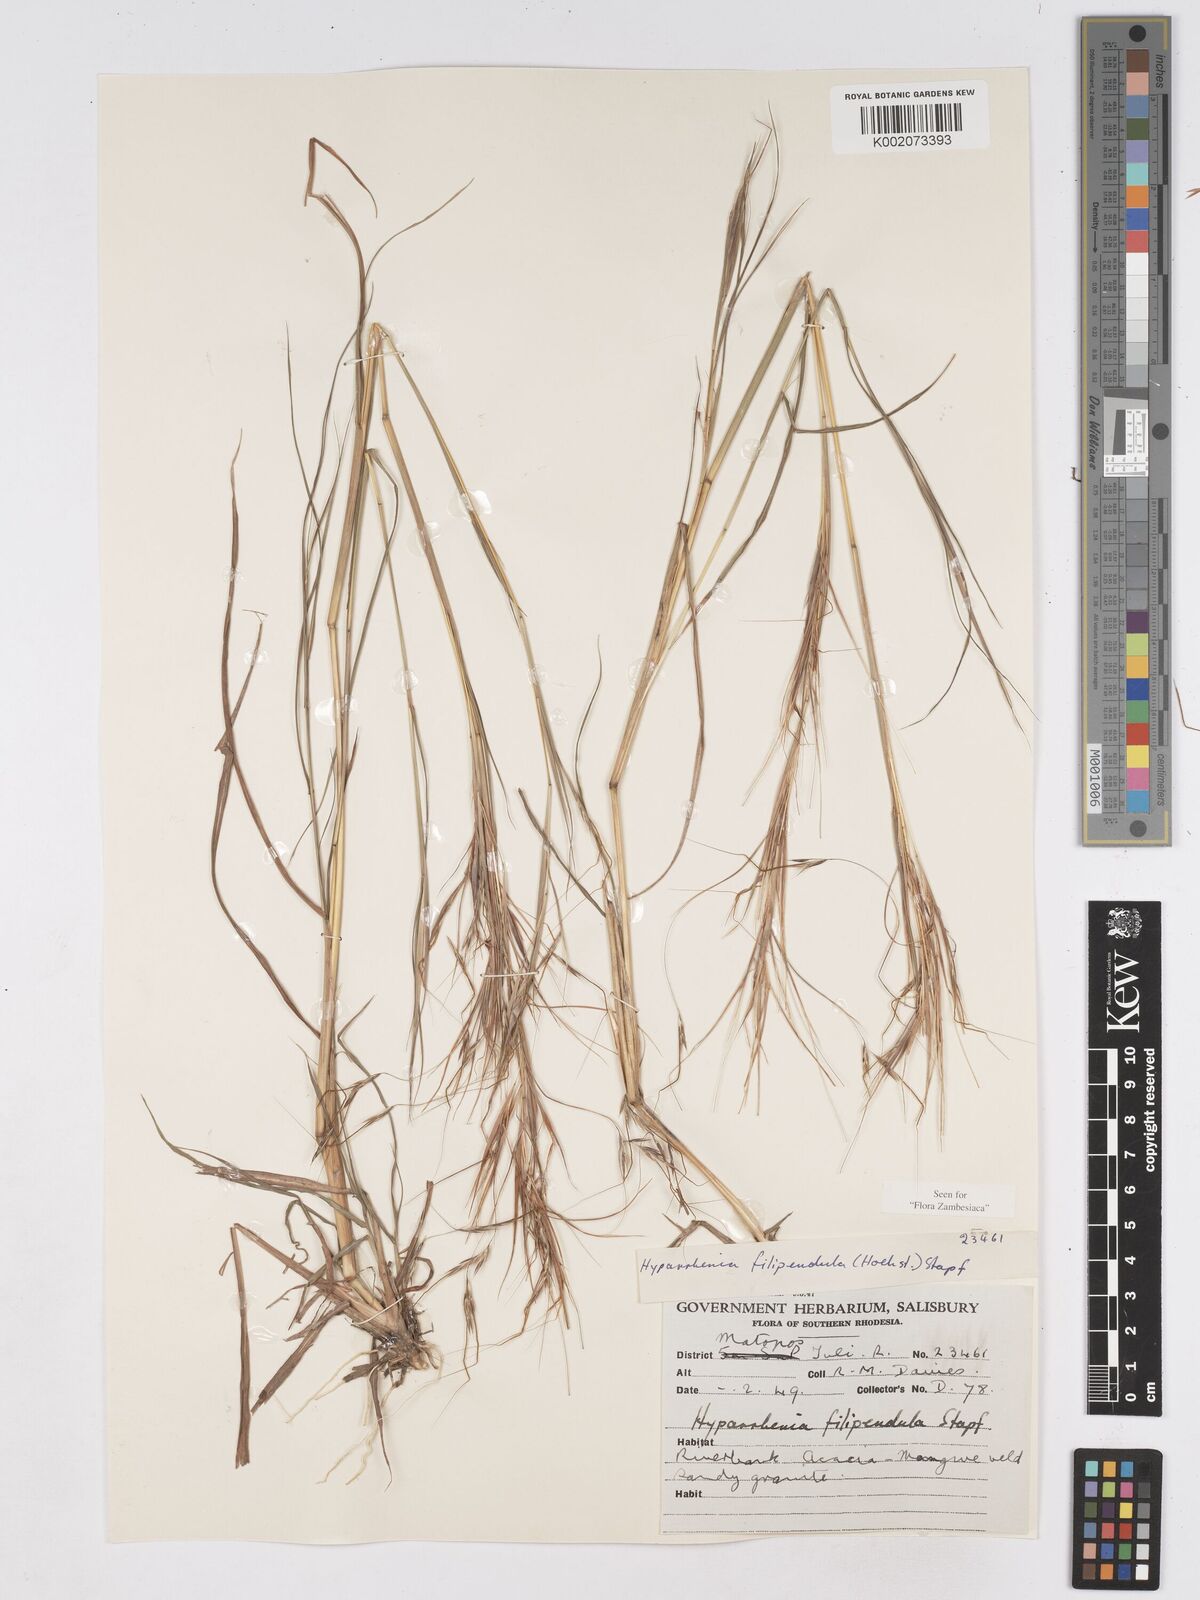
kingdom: Plantae
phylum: Tracheophyta
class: Liliopsida
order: Poales
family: Poaceae
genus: Hyparrhenia
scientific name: Hyparrhenia filipendula
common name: Tambookie grass
